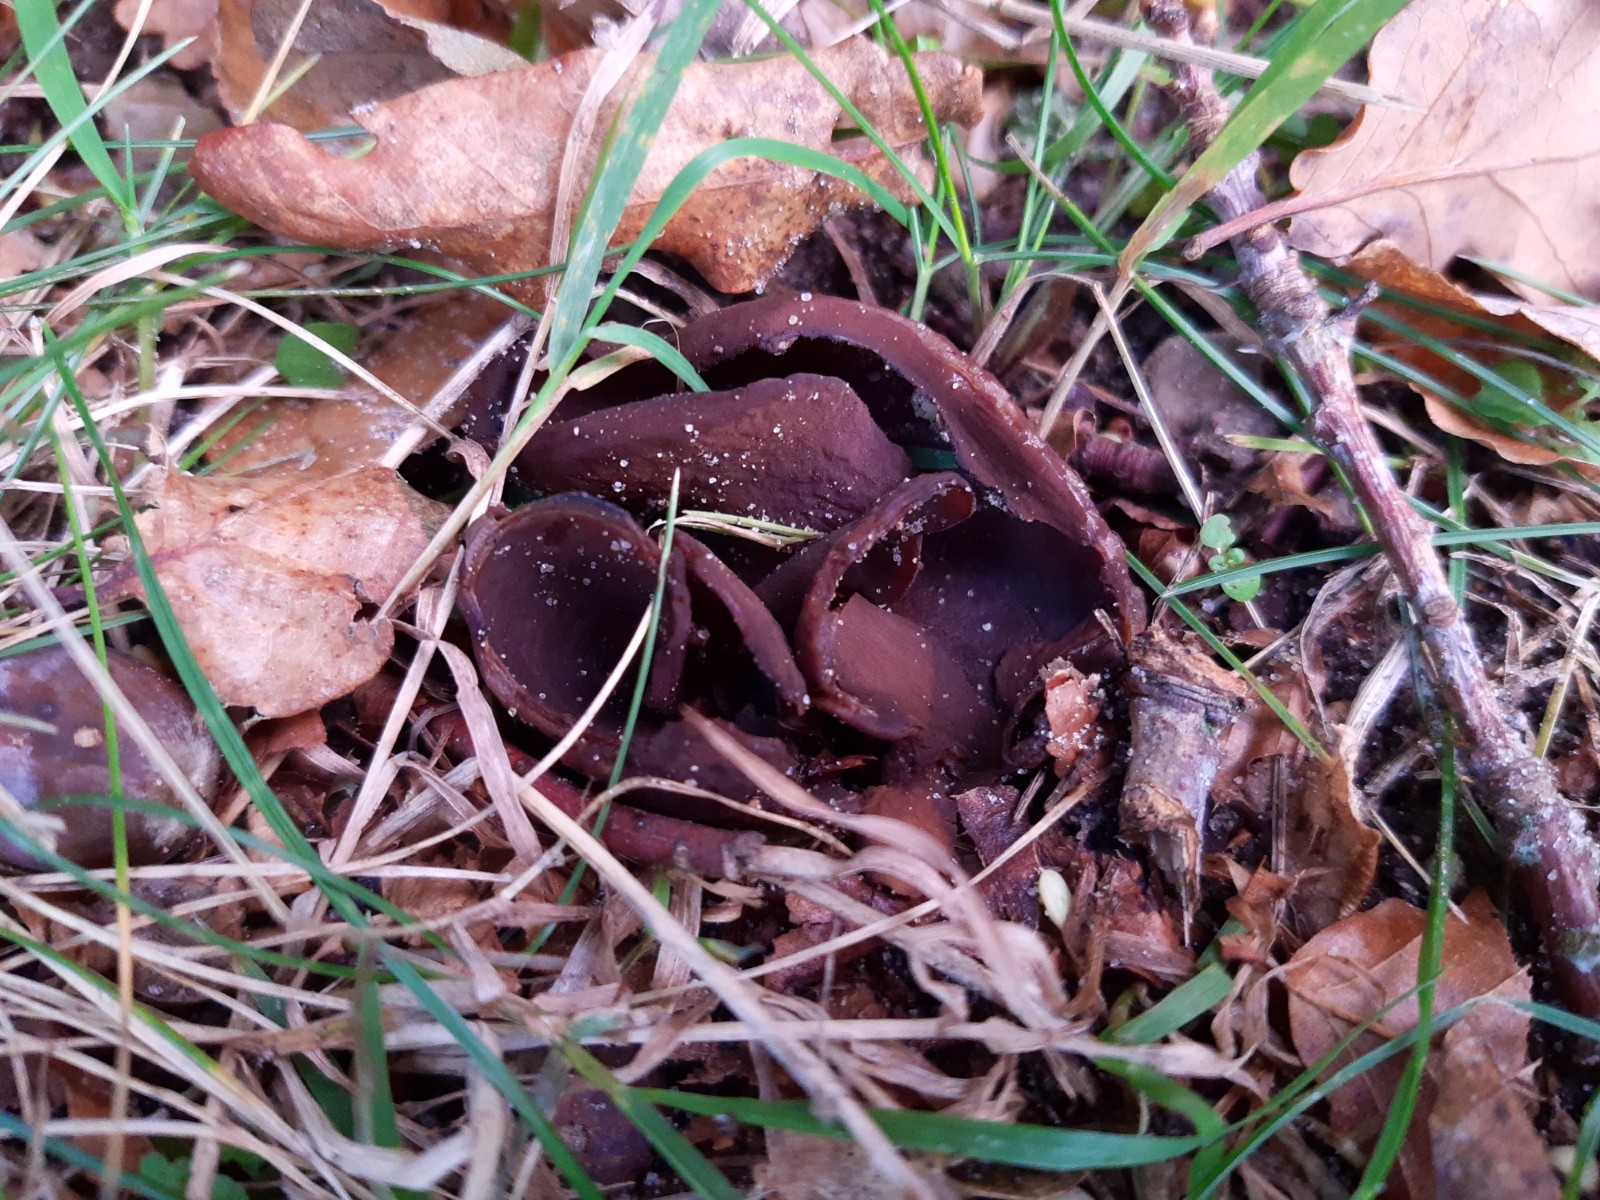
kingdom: Fungi
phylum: Ascomycota
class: Pezizomycetes
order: Pezizales
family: Otideaceae
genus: Otidea
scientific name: Otidea bufonia
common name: brun ørebæger
